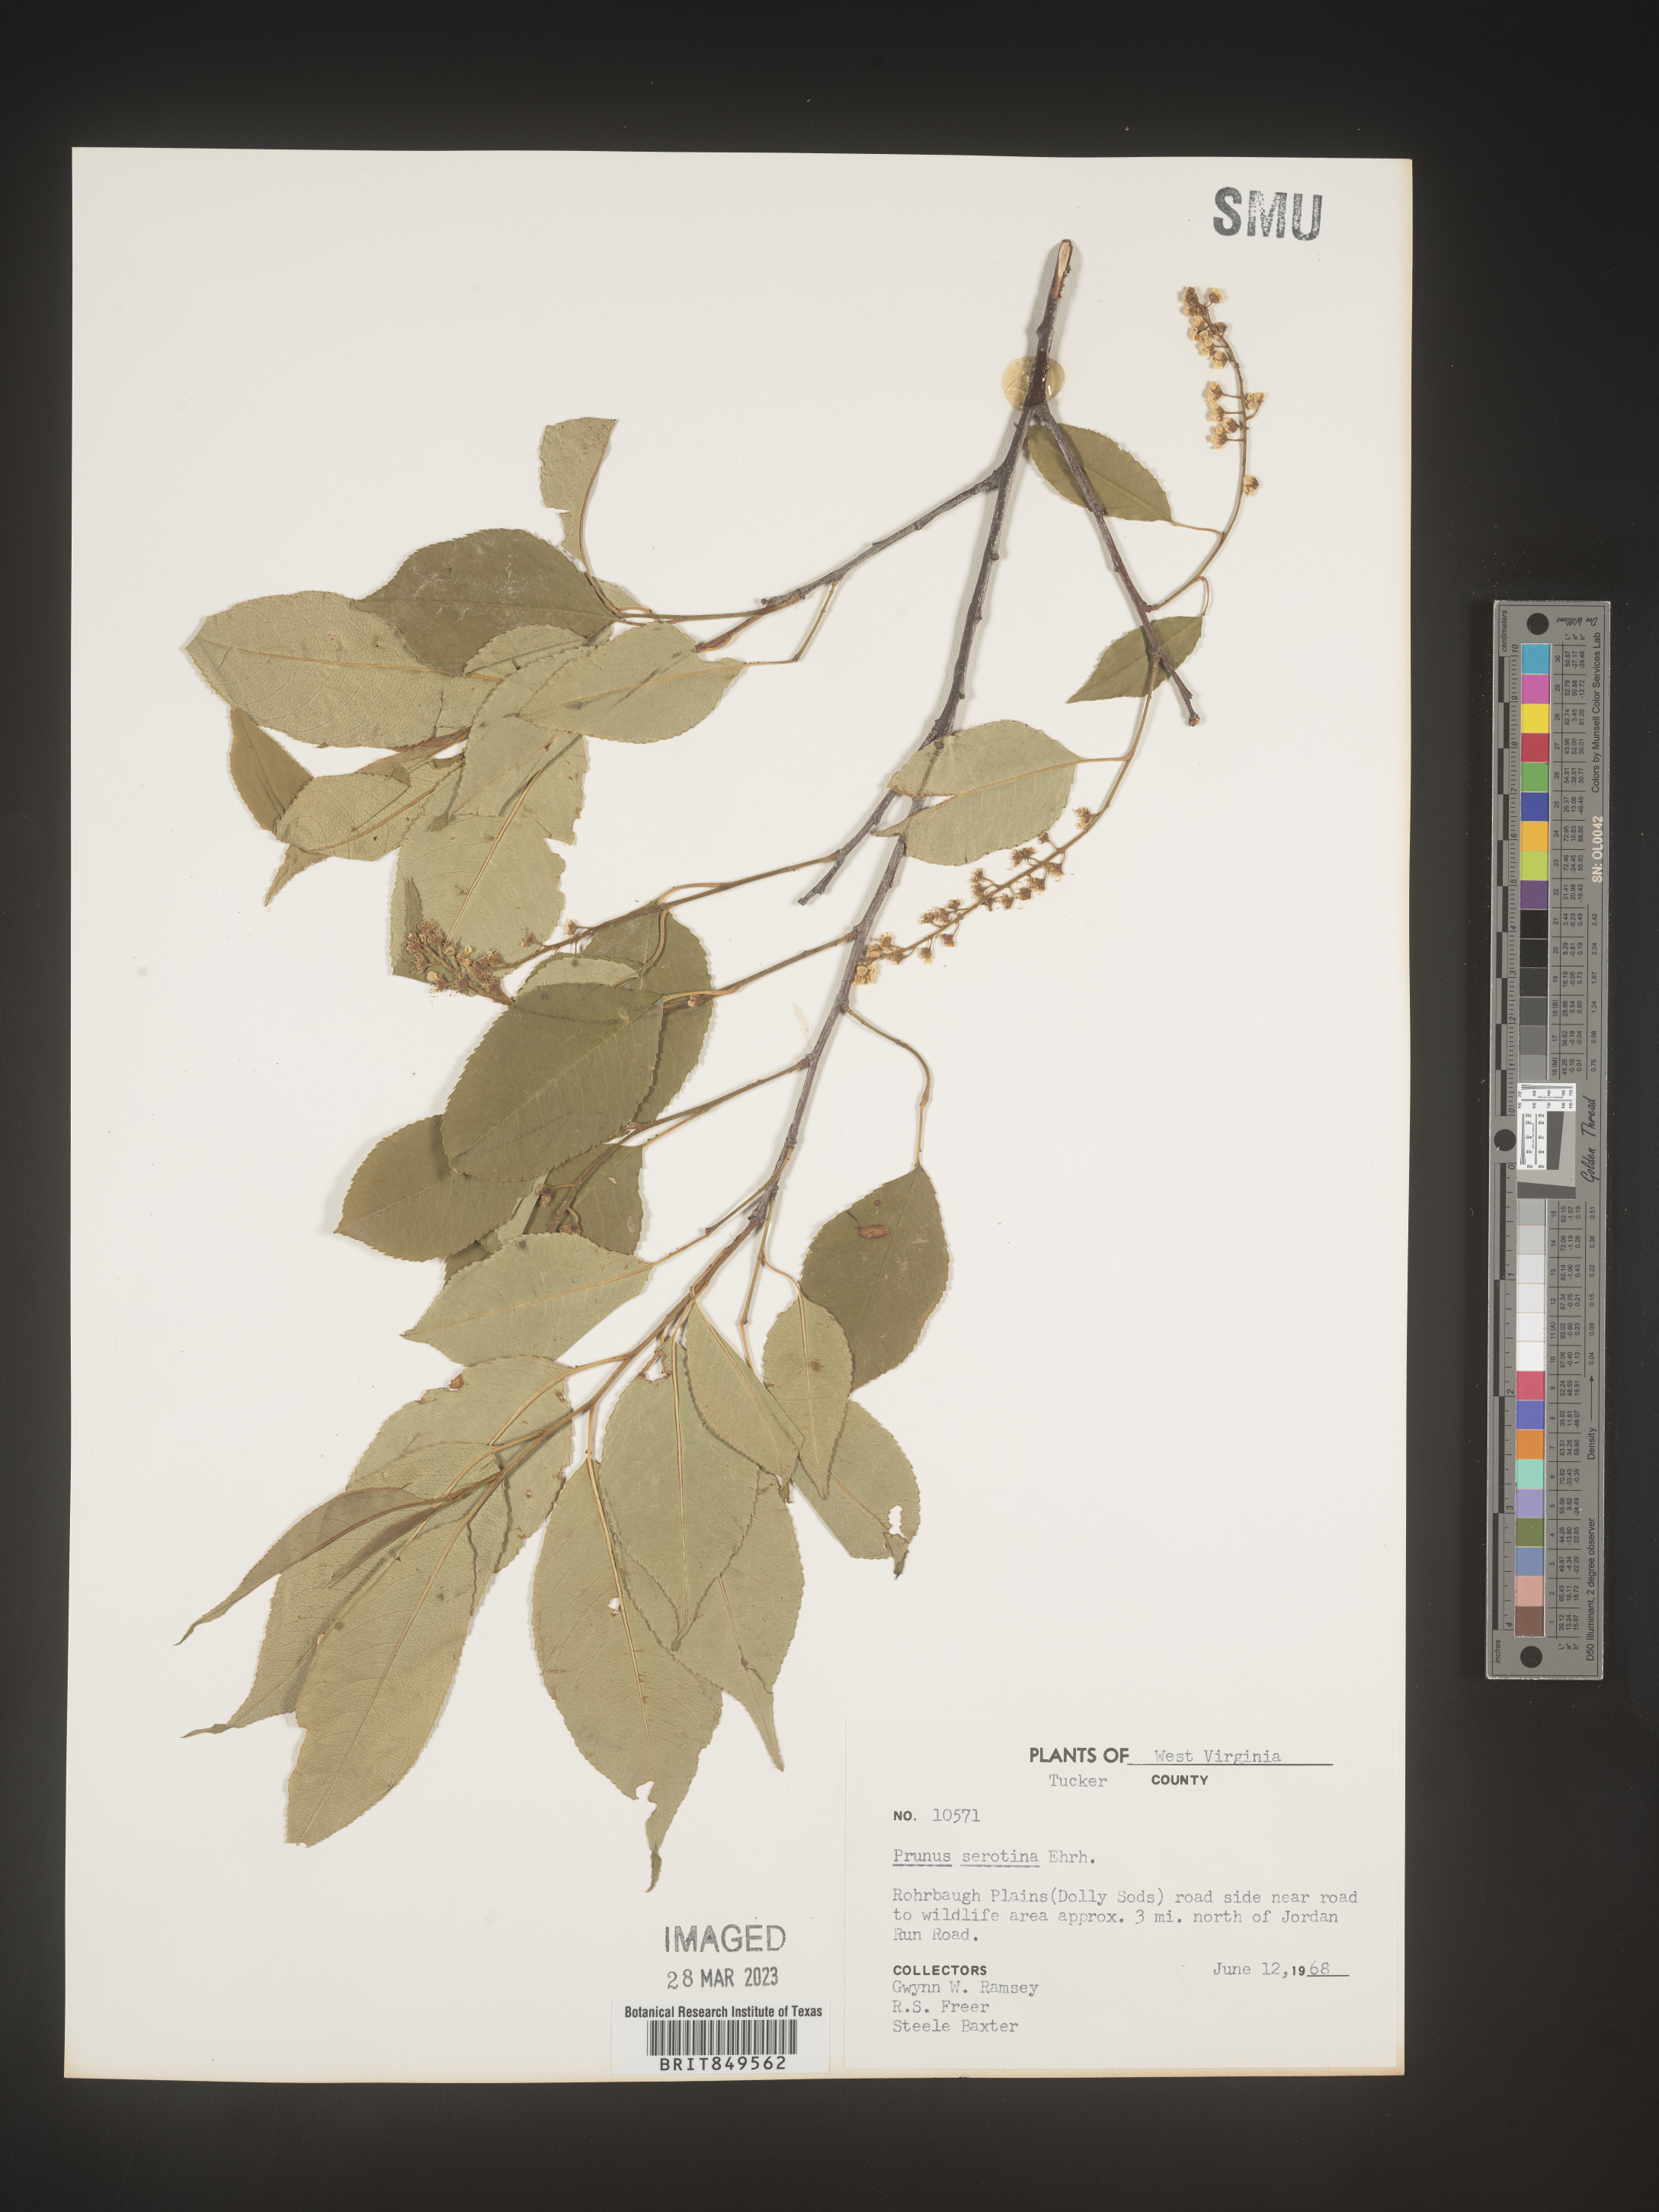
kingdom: Plantae
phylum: Tracheophyta
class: Magnoliopsida
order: Rosales
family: Rosaceae
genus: Prunus
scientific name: Prunus serotina
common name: Black cherry
